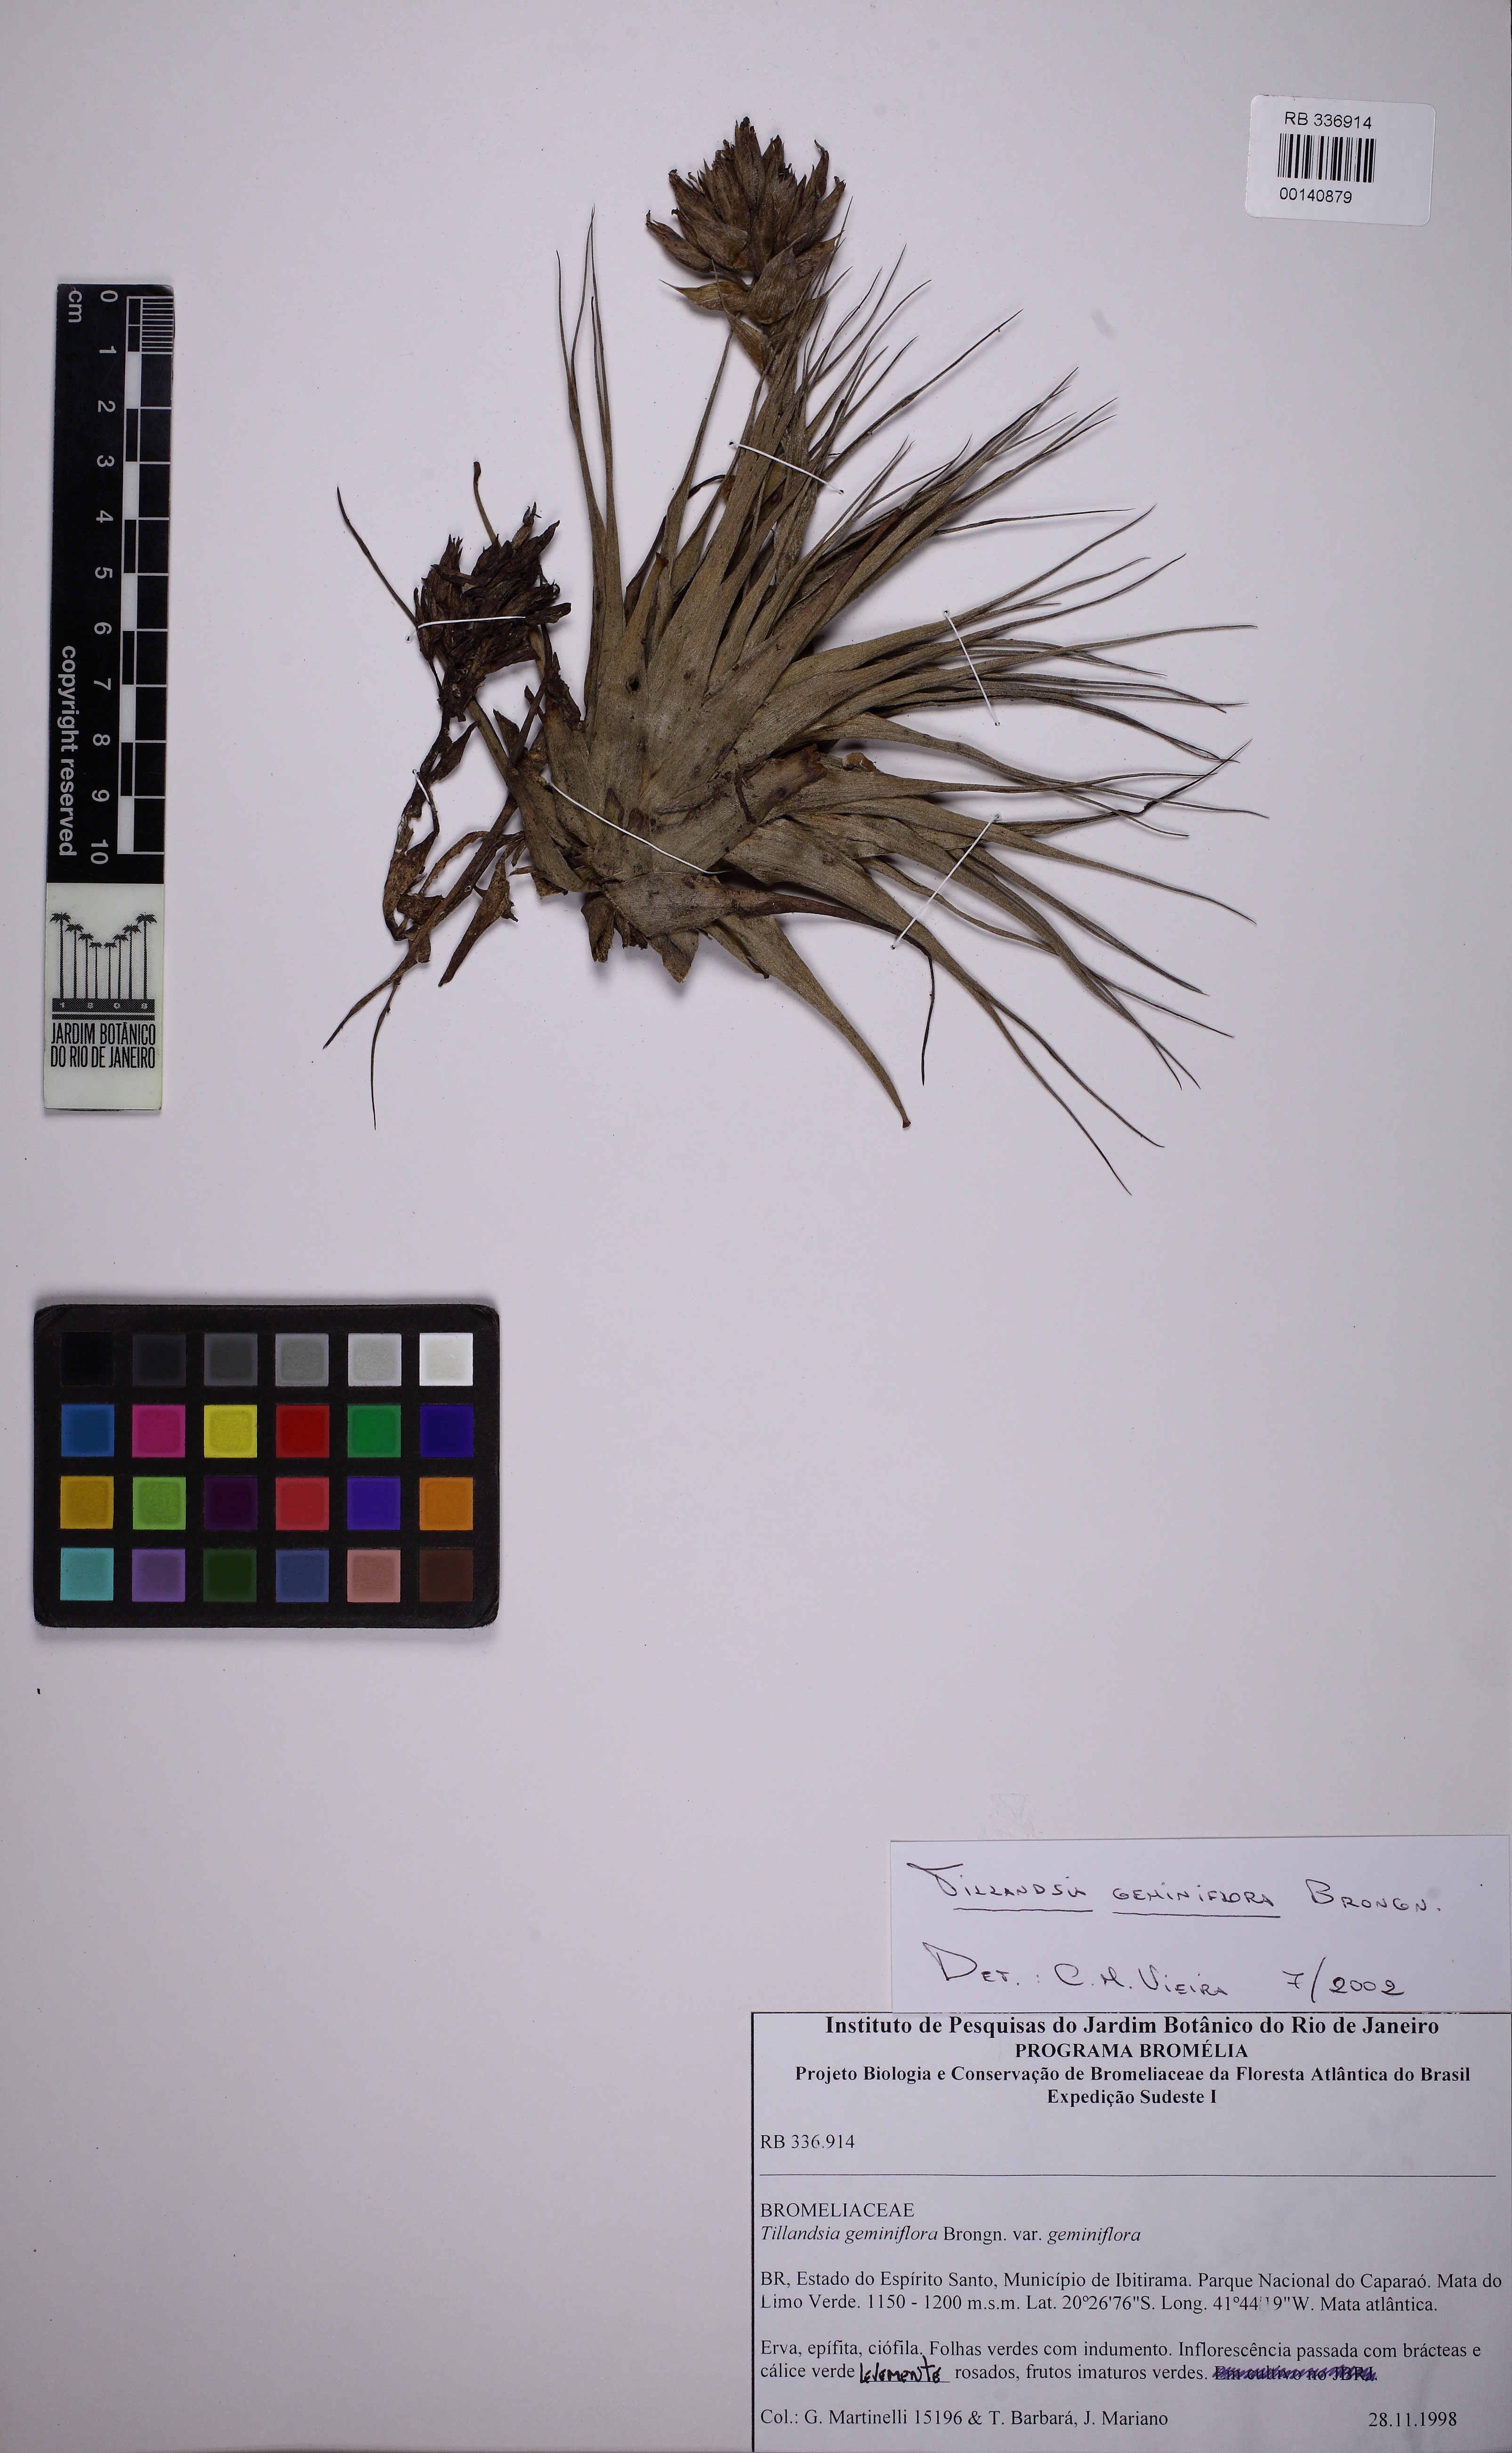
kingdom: Plantae
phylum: Tracheophyta
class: Liliopsida
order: Poales
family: Bromeliaceae
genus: Tillandsia
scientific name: Tillandsia geminiflora
